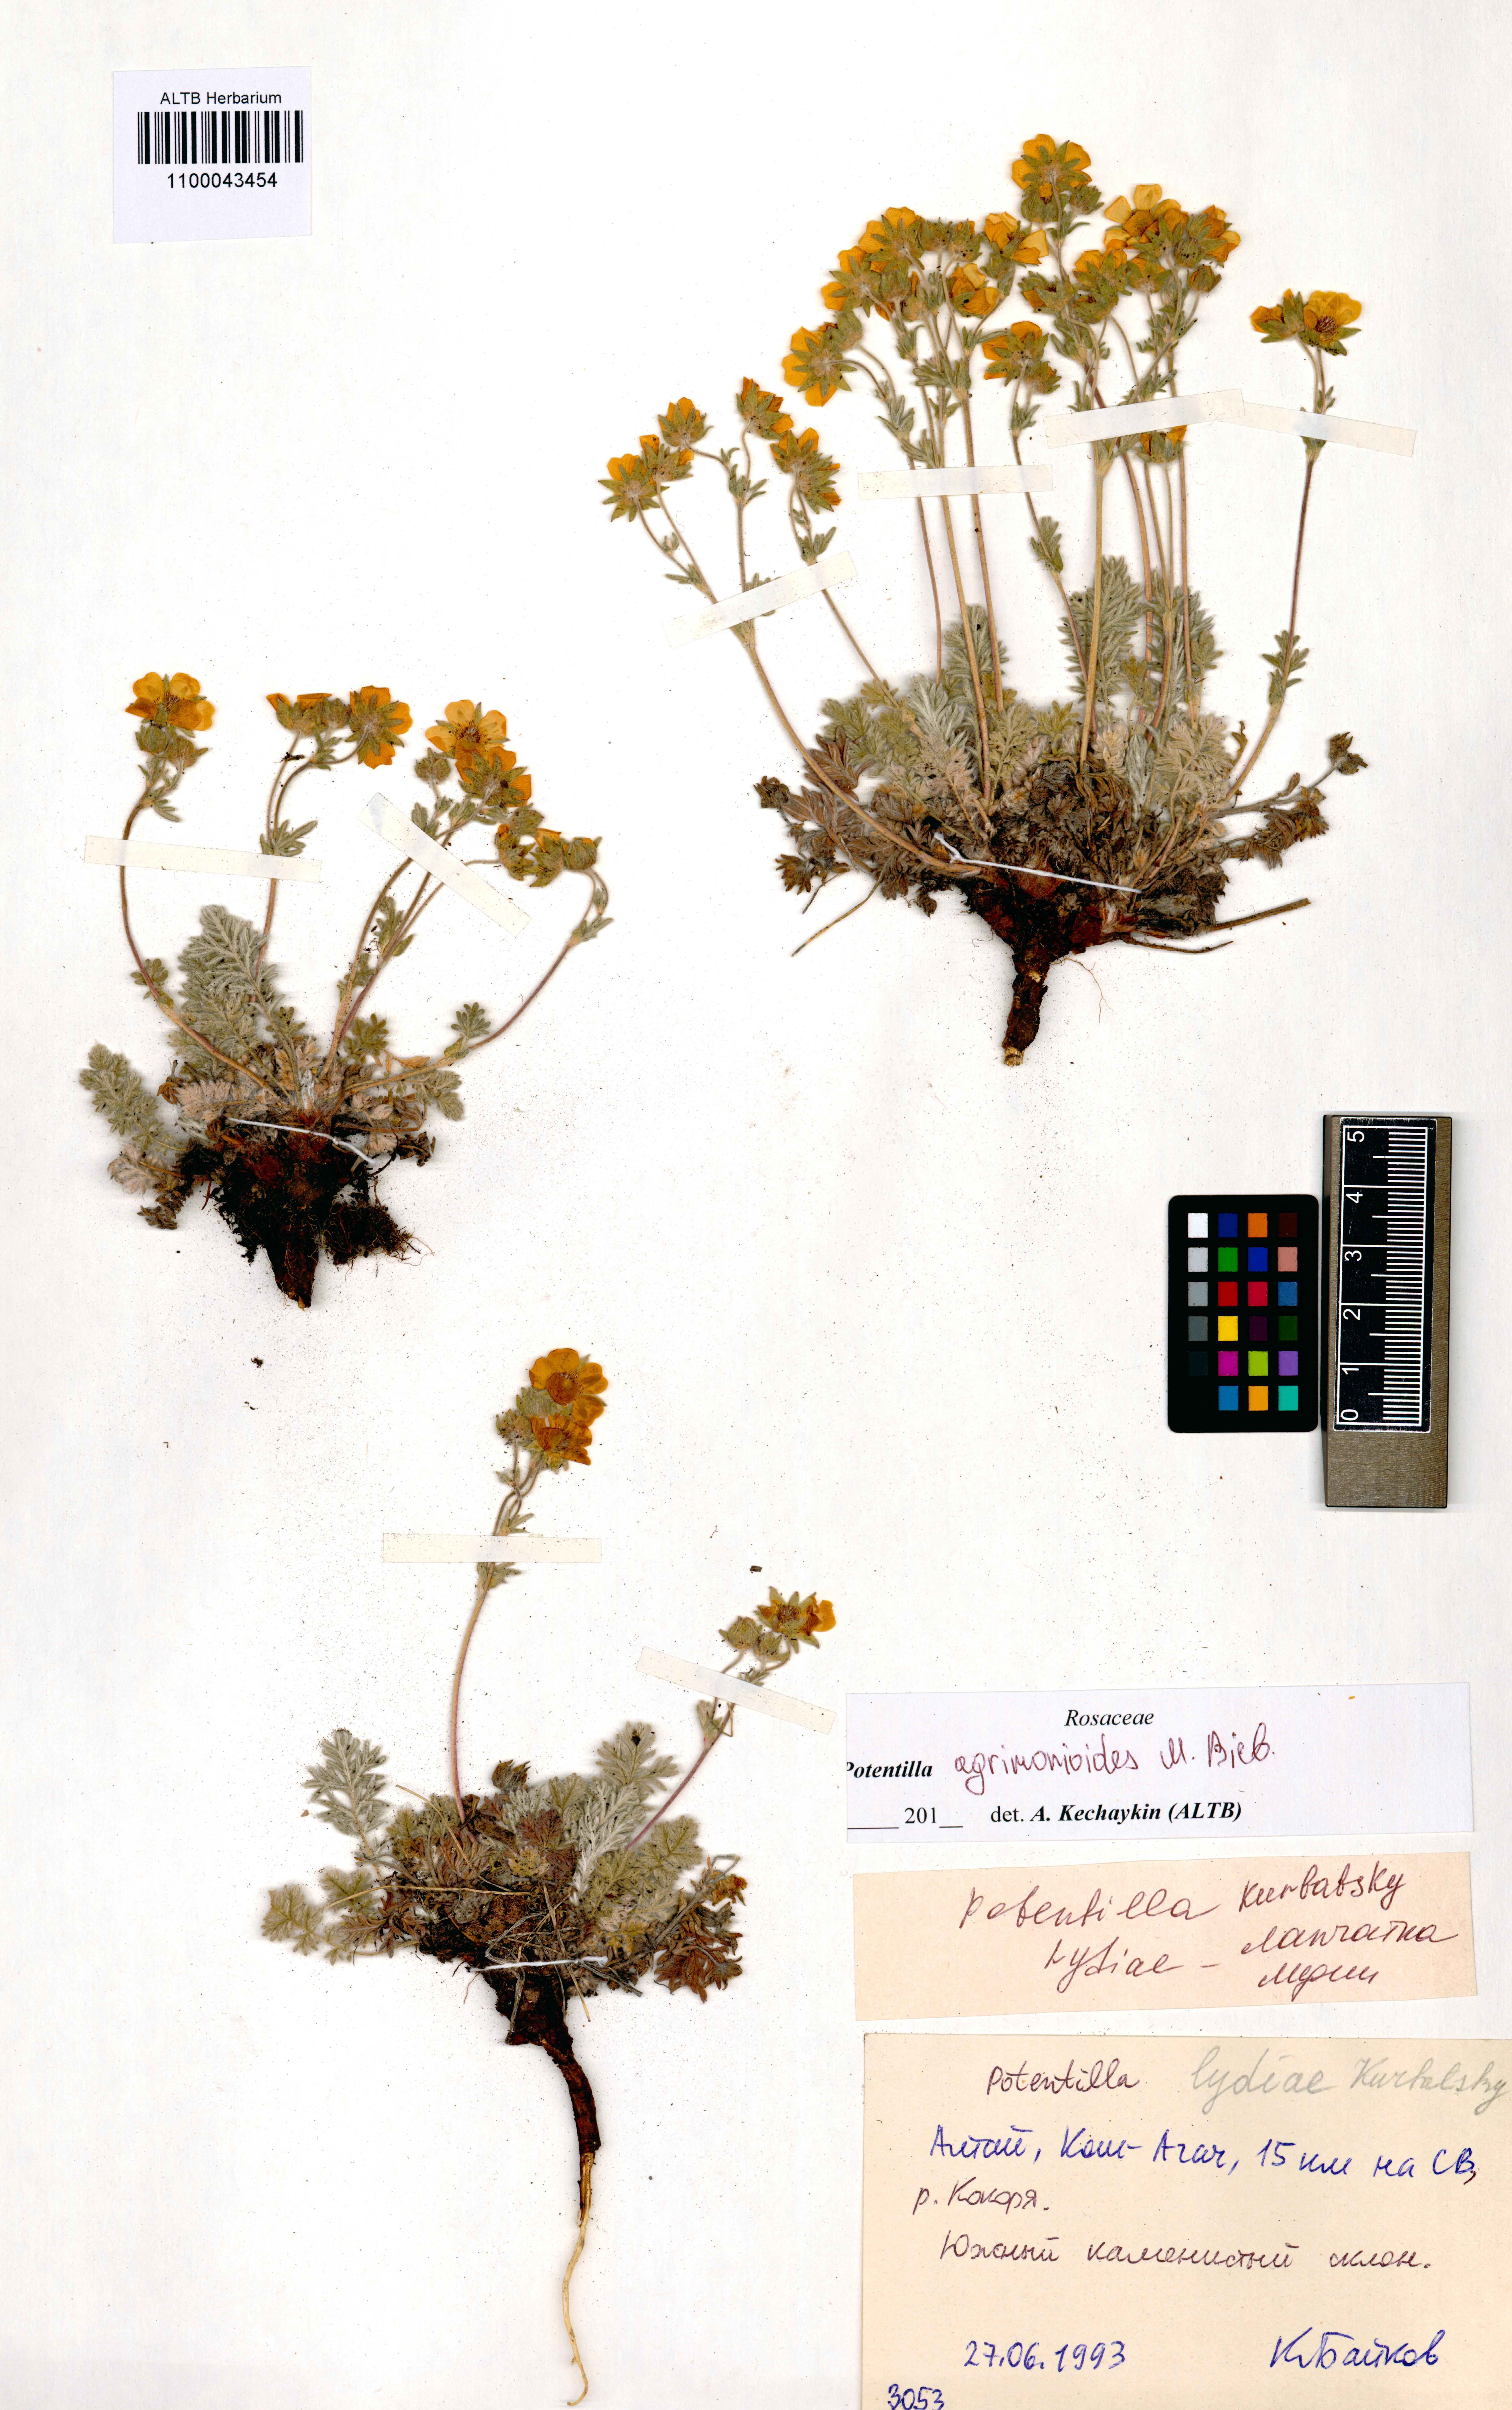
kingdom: Plantae
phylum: Tracheophyta
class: Magnoliopsida
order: Rosales
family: Rosaceae
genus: Potentilla
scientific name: Potentilla agrimonioides
